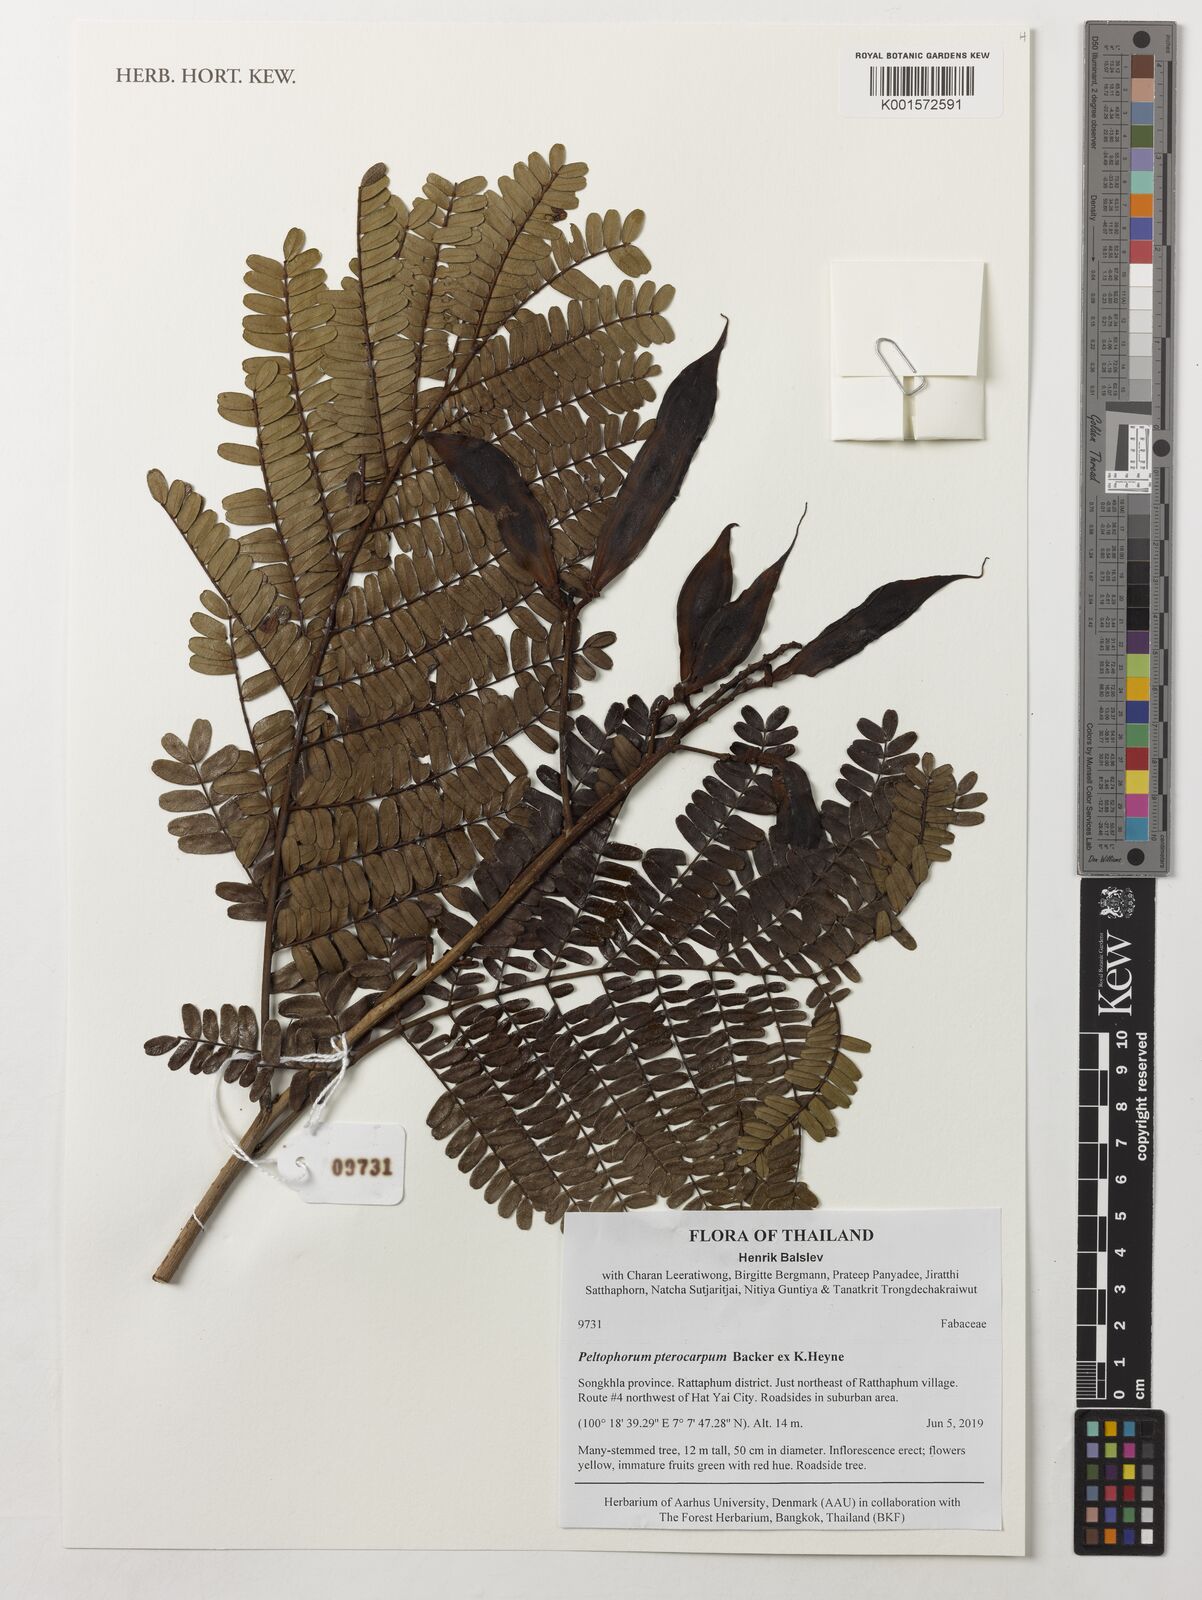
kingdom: Plantae
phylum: Tracheophyta
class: Magnoliopsida
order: Fabales
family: Fabaceae
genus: Peltophorum
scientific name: Peltophorum pterocarpum
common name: Yellow flame
